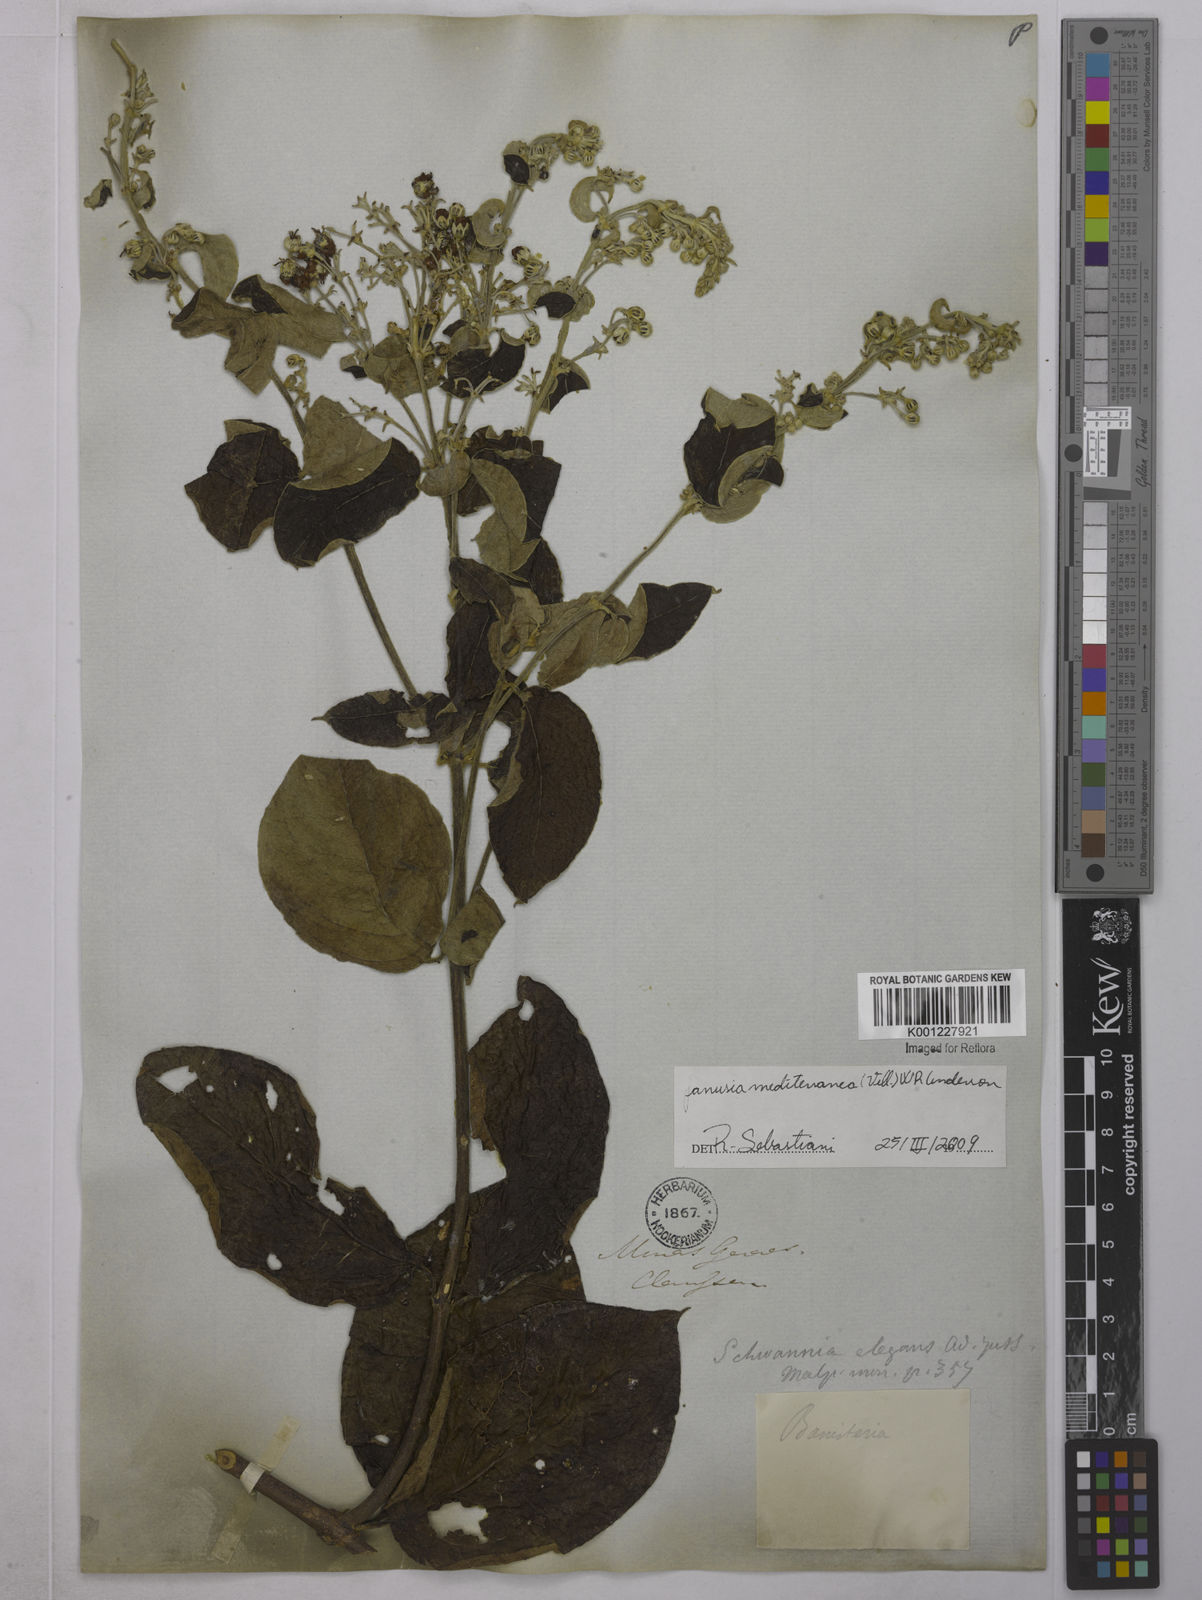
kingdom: Plantae
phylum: Tracheophyta
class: Magnoliopsida
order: Malpighiales
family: Malpighiaceae
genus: Janusia
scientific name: Janusia mediterranea
